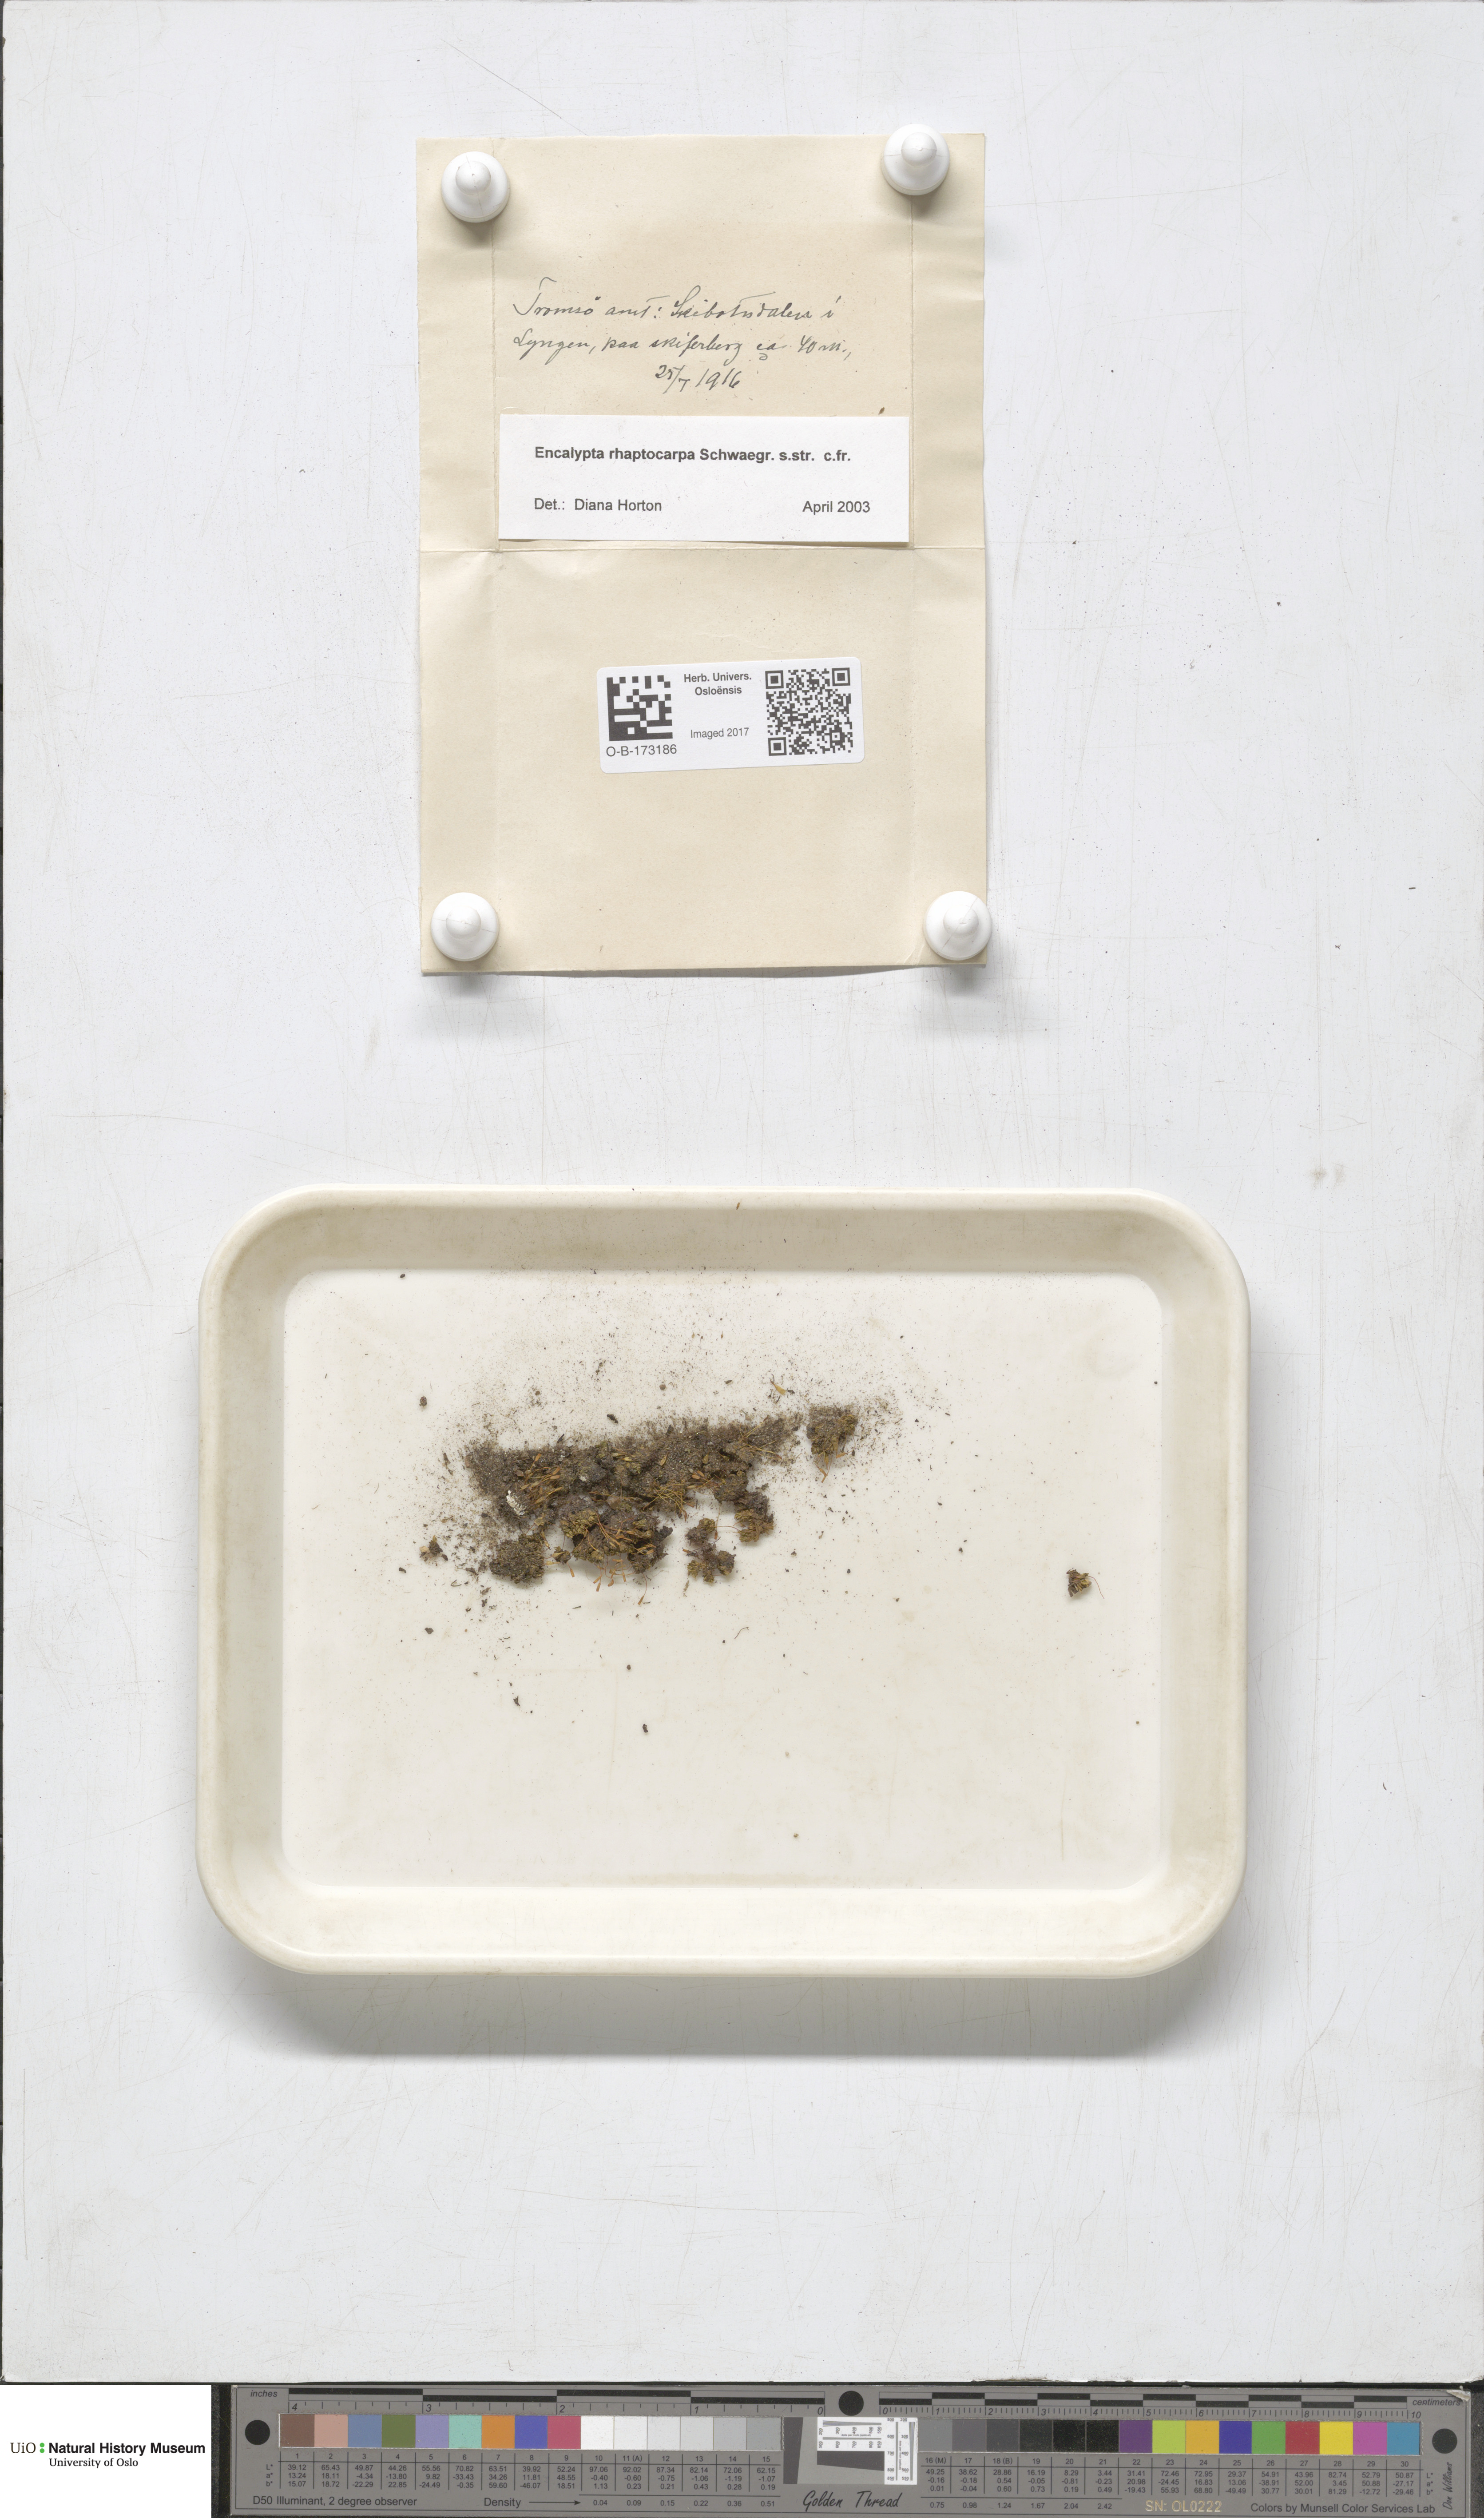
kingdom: Plantae
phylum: Bryophyta
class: Bryopsida
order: Encalyptales
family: Encalyptaceae
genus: Encalypta
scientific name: Encalypta rhaptocarpa
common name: Ribbed extinguisher moss
